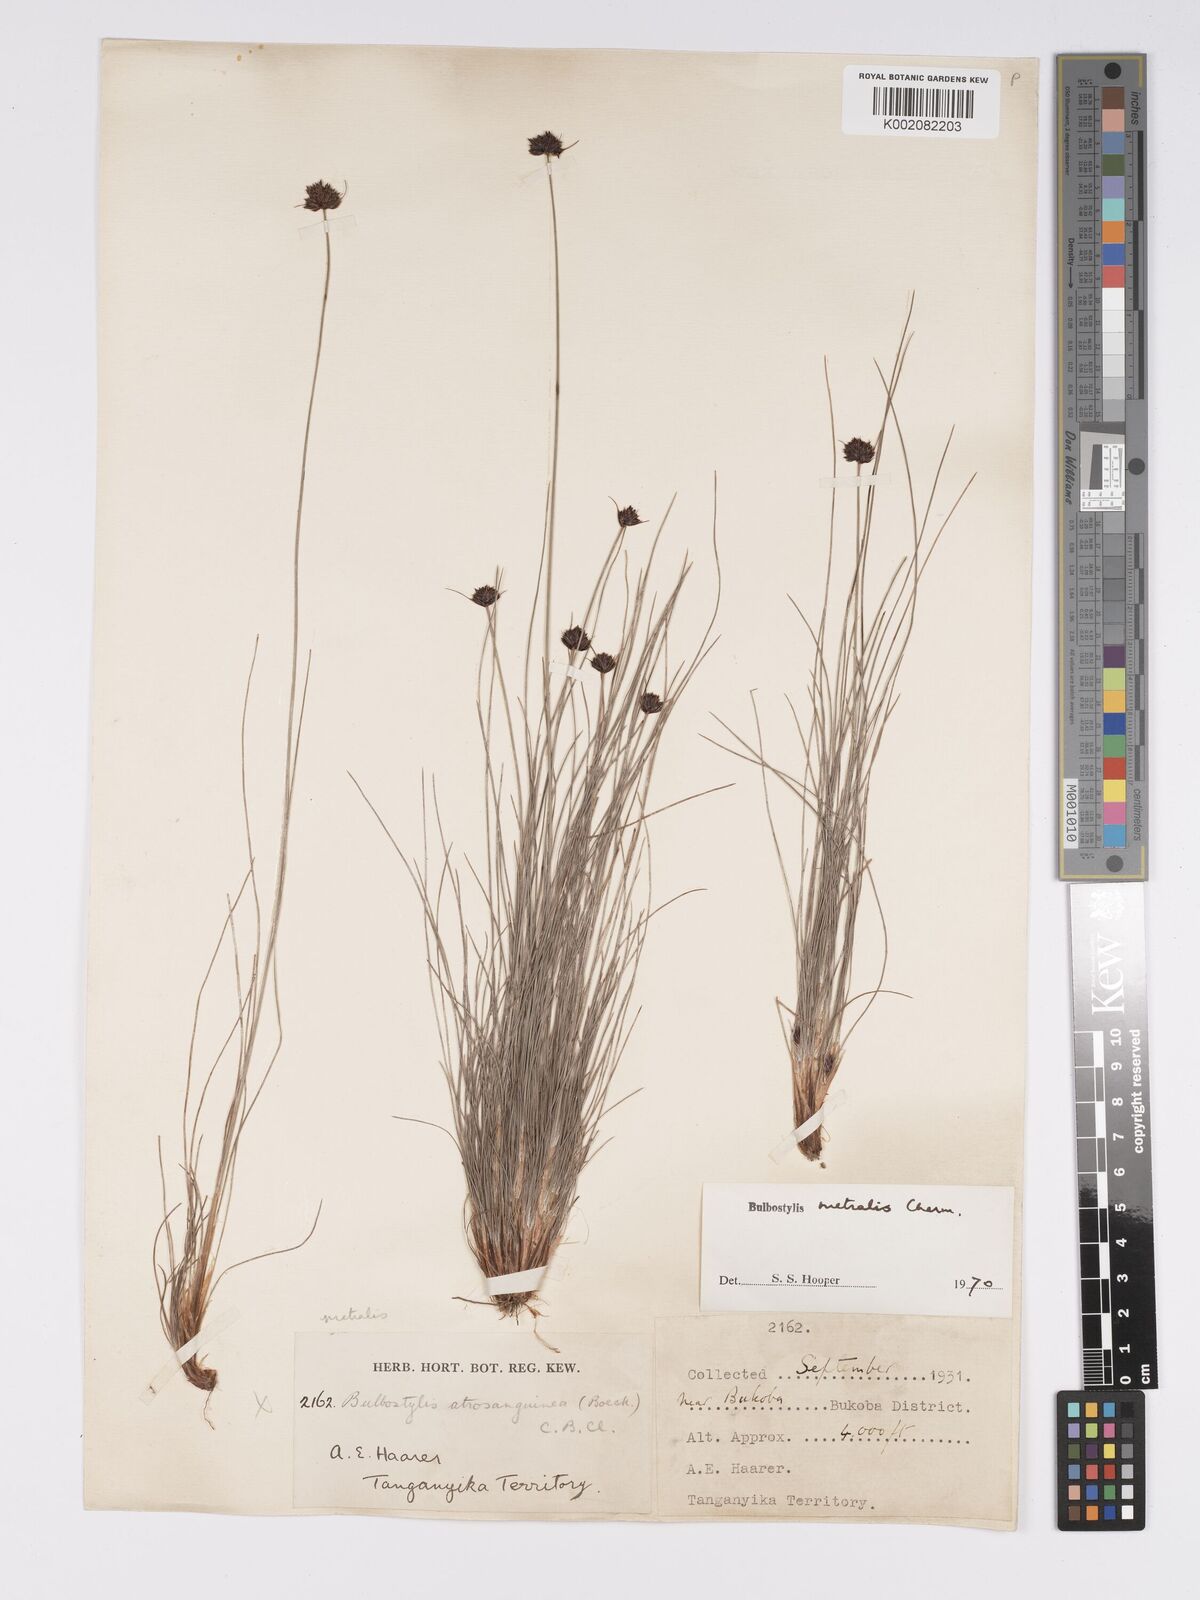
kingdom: Plantae
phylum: Tracheophyta
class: Liliopsida
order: Poales
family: Cyperaceae
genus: Bulbostylis
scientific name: Bulbostylis filamentosa
